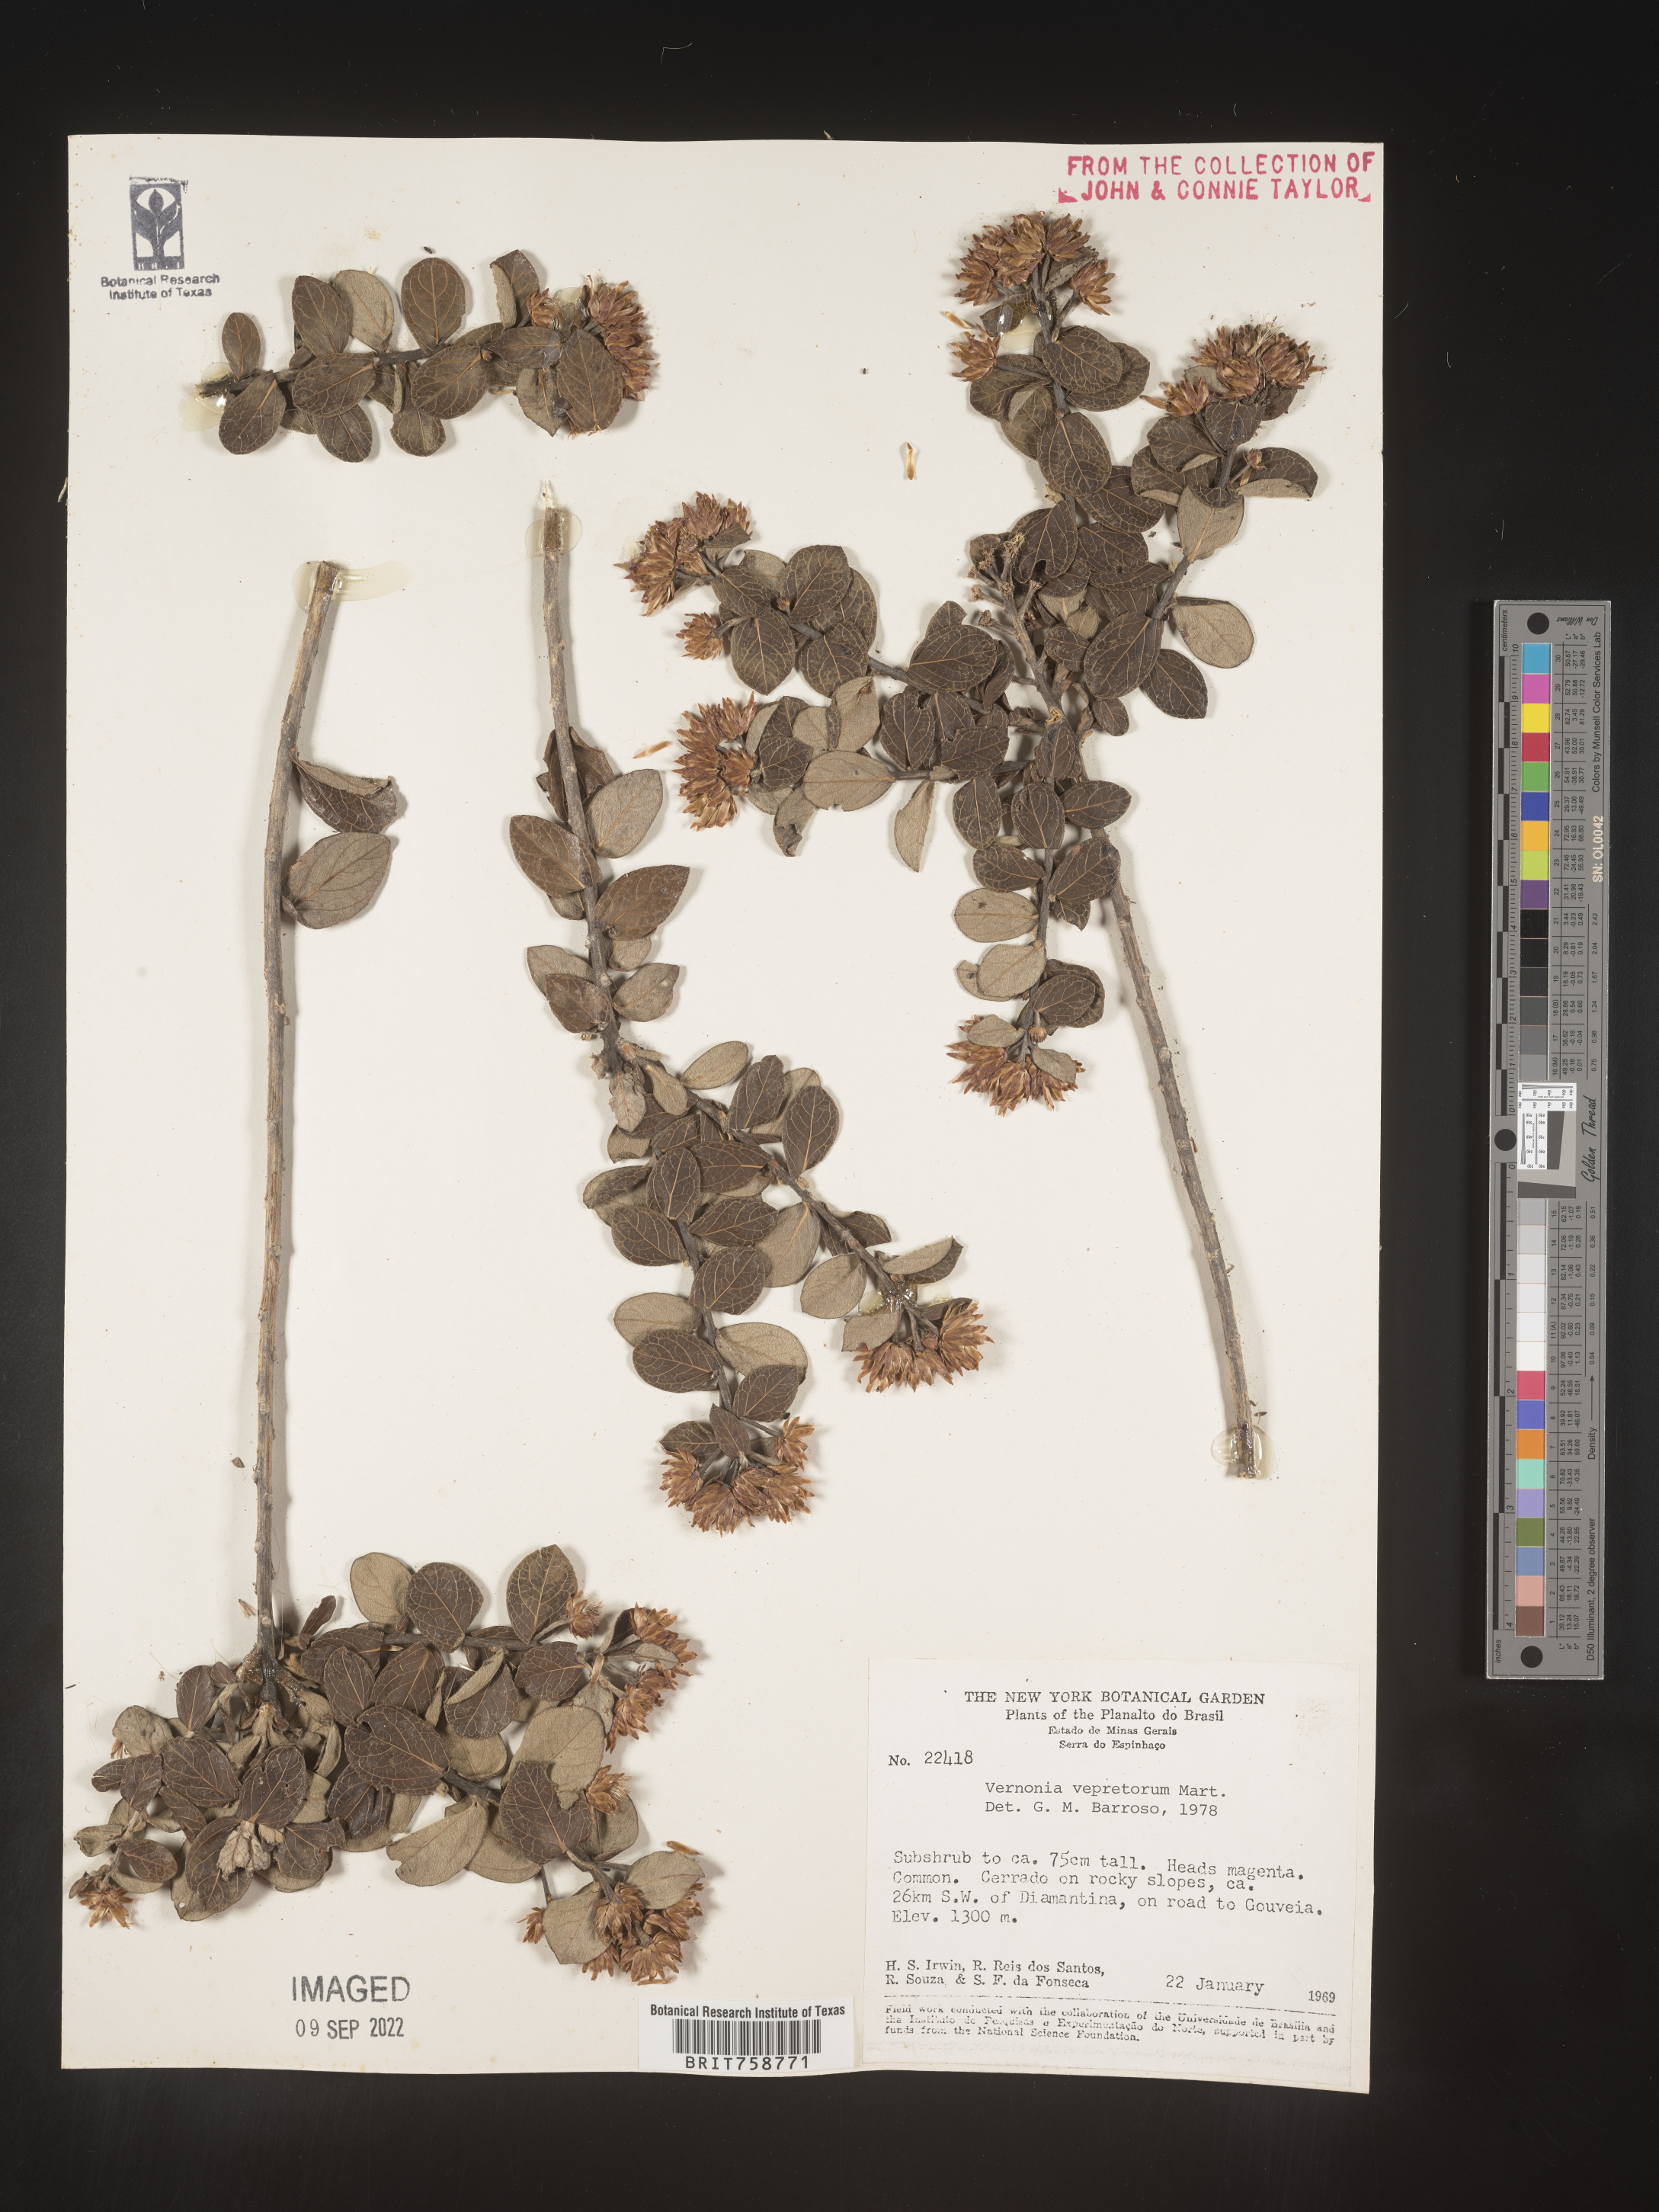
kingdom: Plantae
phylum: Tracheophyta
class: Magnoliopsida
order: Asterales
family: Asteraceae
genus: Vernonia
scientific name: Vernonia
